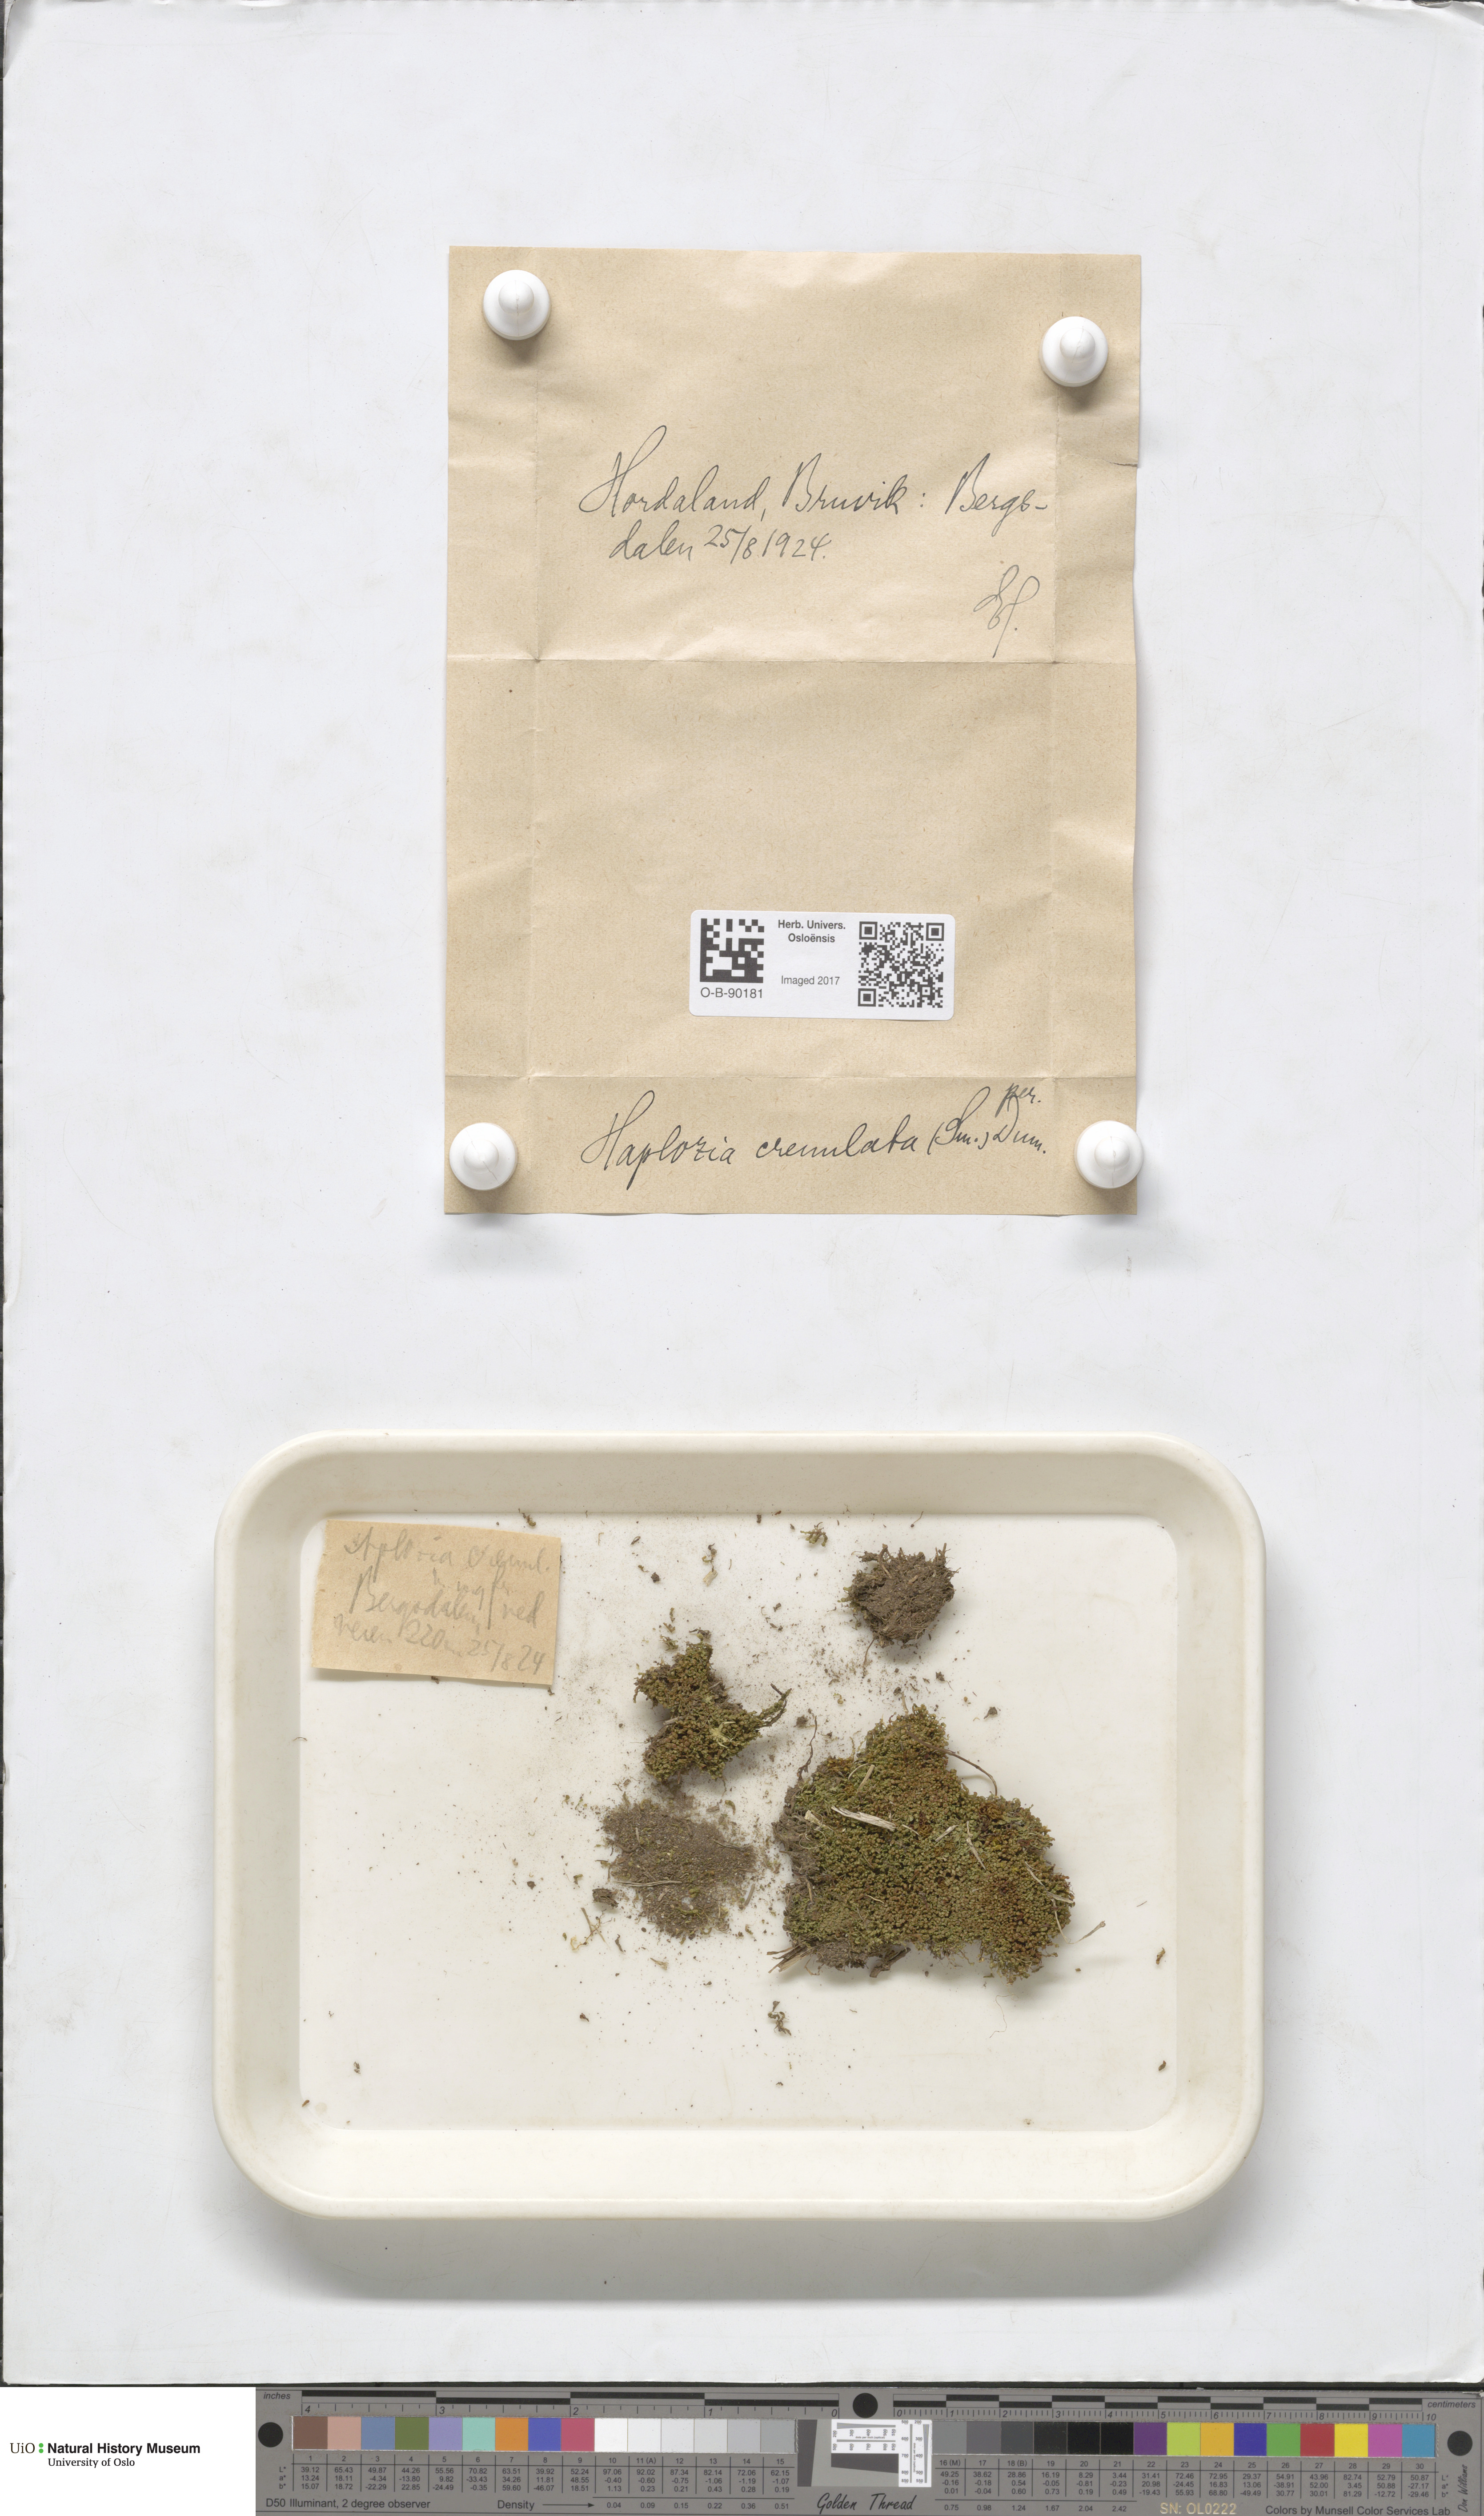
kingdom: Plantae
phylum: Marchantiophyta
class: Jungermanniopsida
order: Jungermanniales
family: Solenostomataceae
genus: Solenostoma
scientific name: Solenostoma gracillimum
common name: Crenulated flapwort
